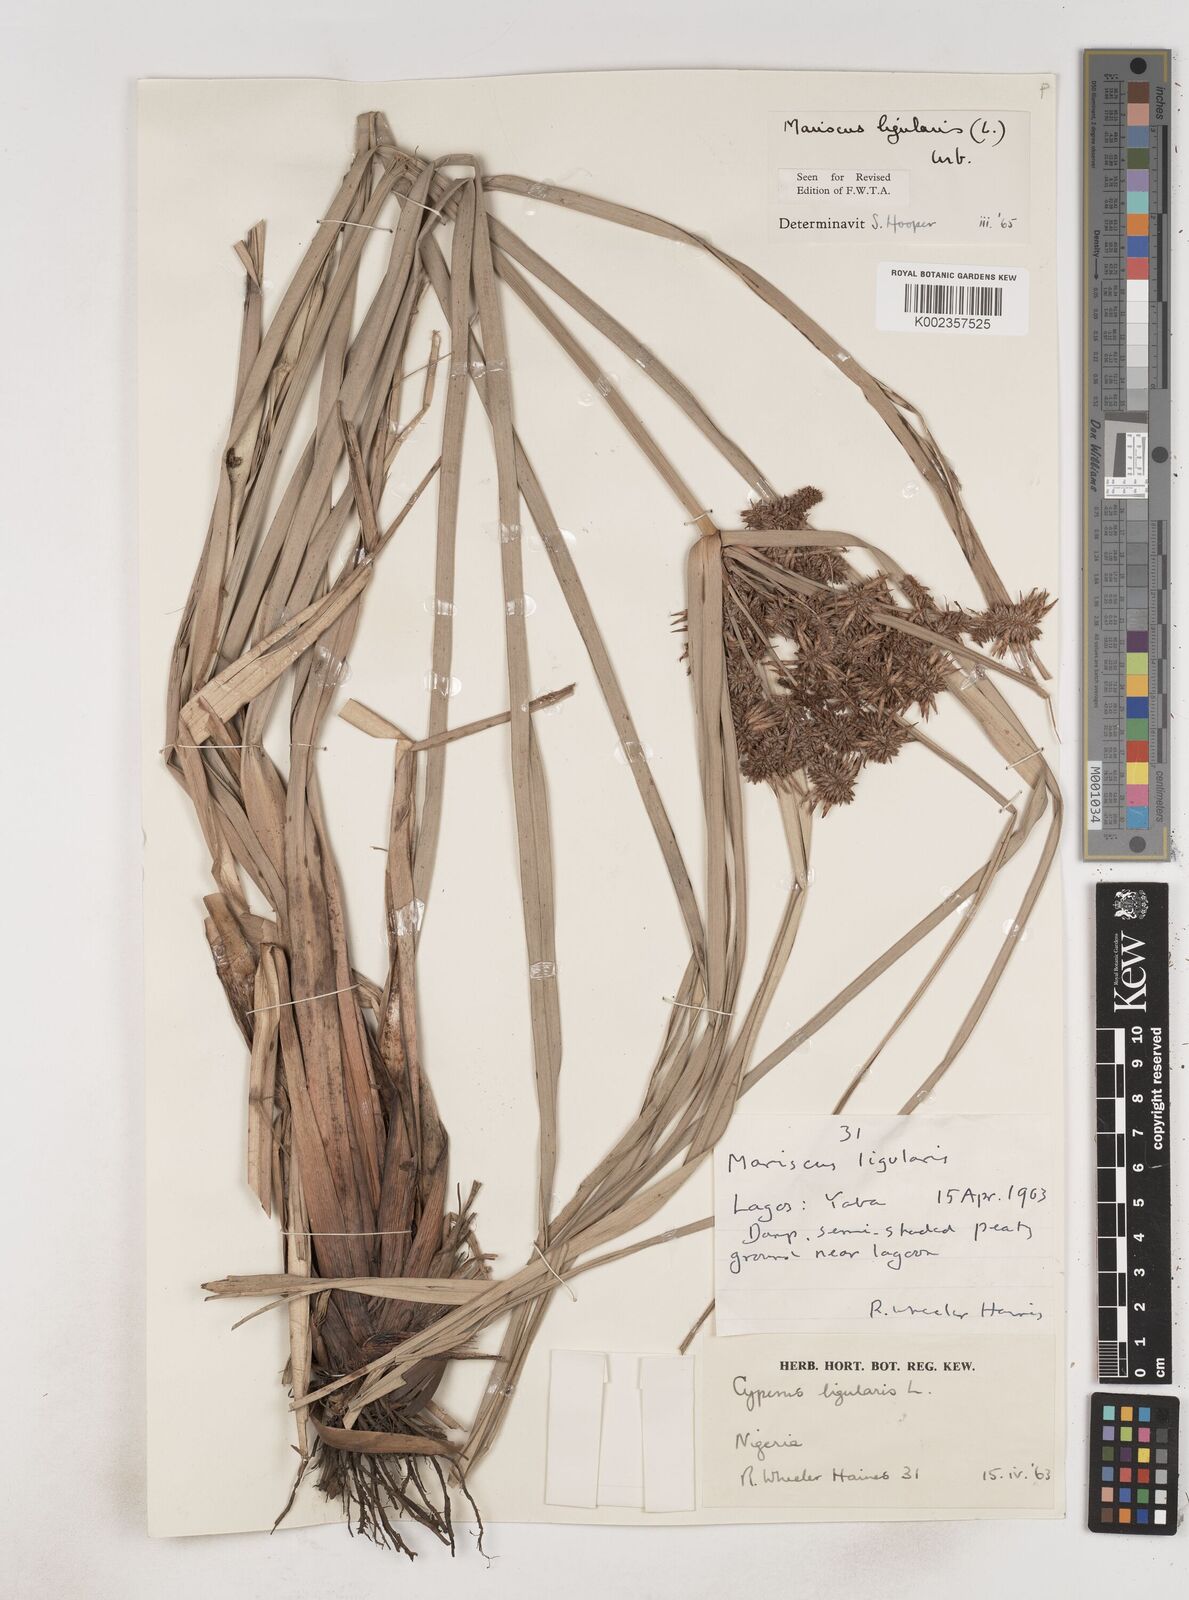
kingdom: Plantae
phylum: Tracheophyta
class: Liliopsida
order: Poales
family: Cyperaceae
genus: Cyperus
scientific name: Cyperus ligularis
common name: Swamp flat sedge
